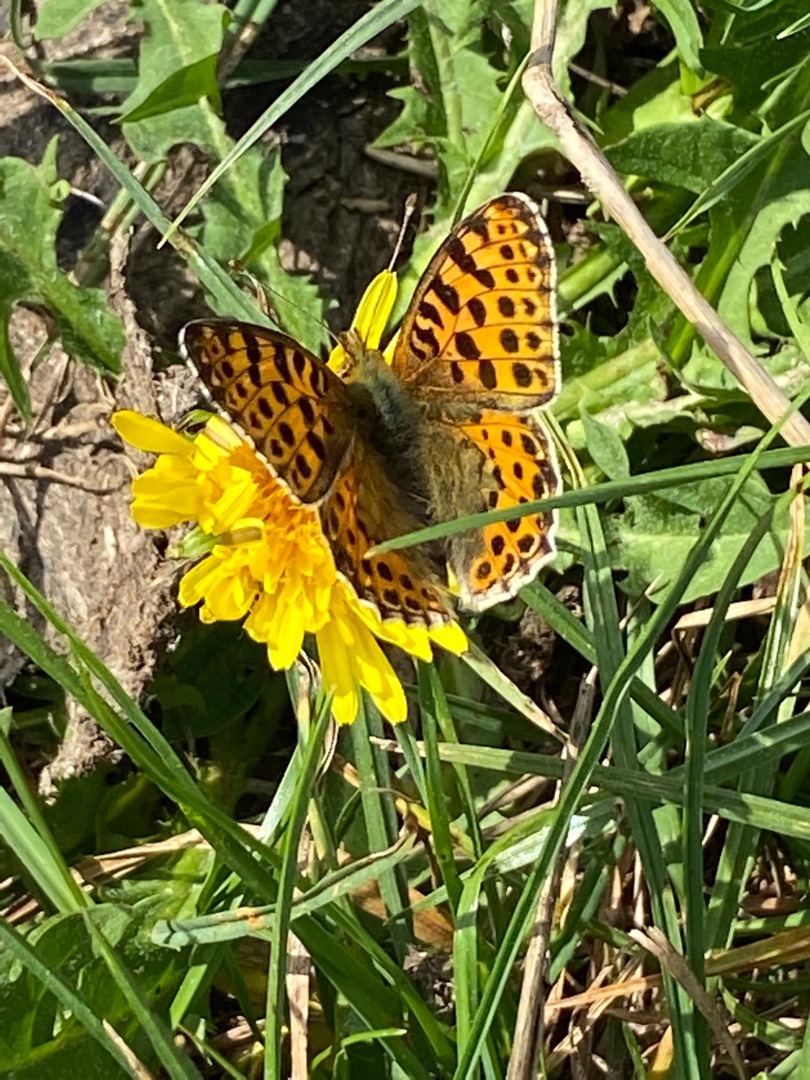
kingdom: Animalia
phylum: Arthropoda
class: Insecta
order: Lepidoptera
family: Nymphalidae
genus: Issoria
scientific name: Issoria lathonia
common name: Storplettet perlemorsommerfugl
